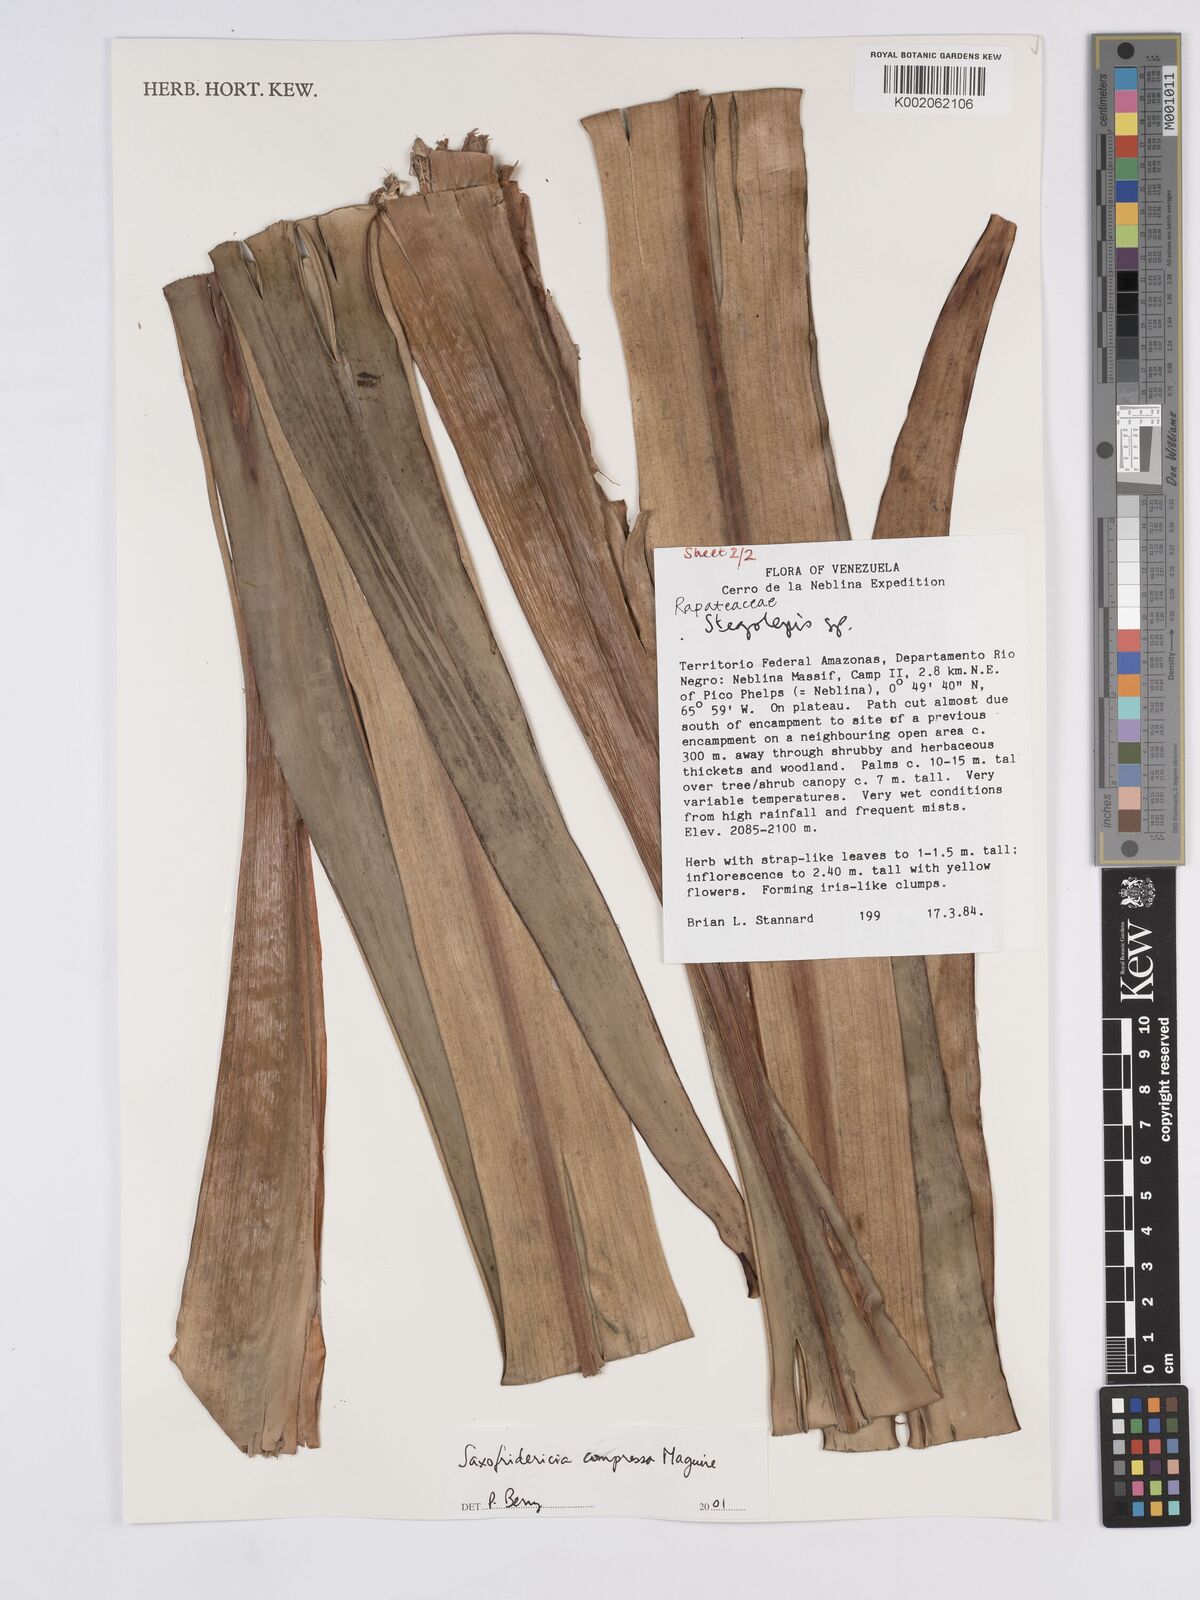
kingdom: Plantae
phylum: Tracheophyta
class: Liliopsida
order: Poales
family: Rapateaceae
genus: Saxofridericia
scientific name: Saxofridericia compressa
